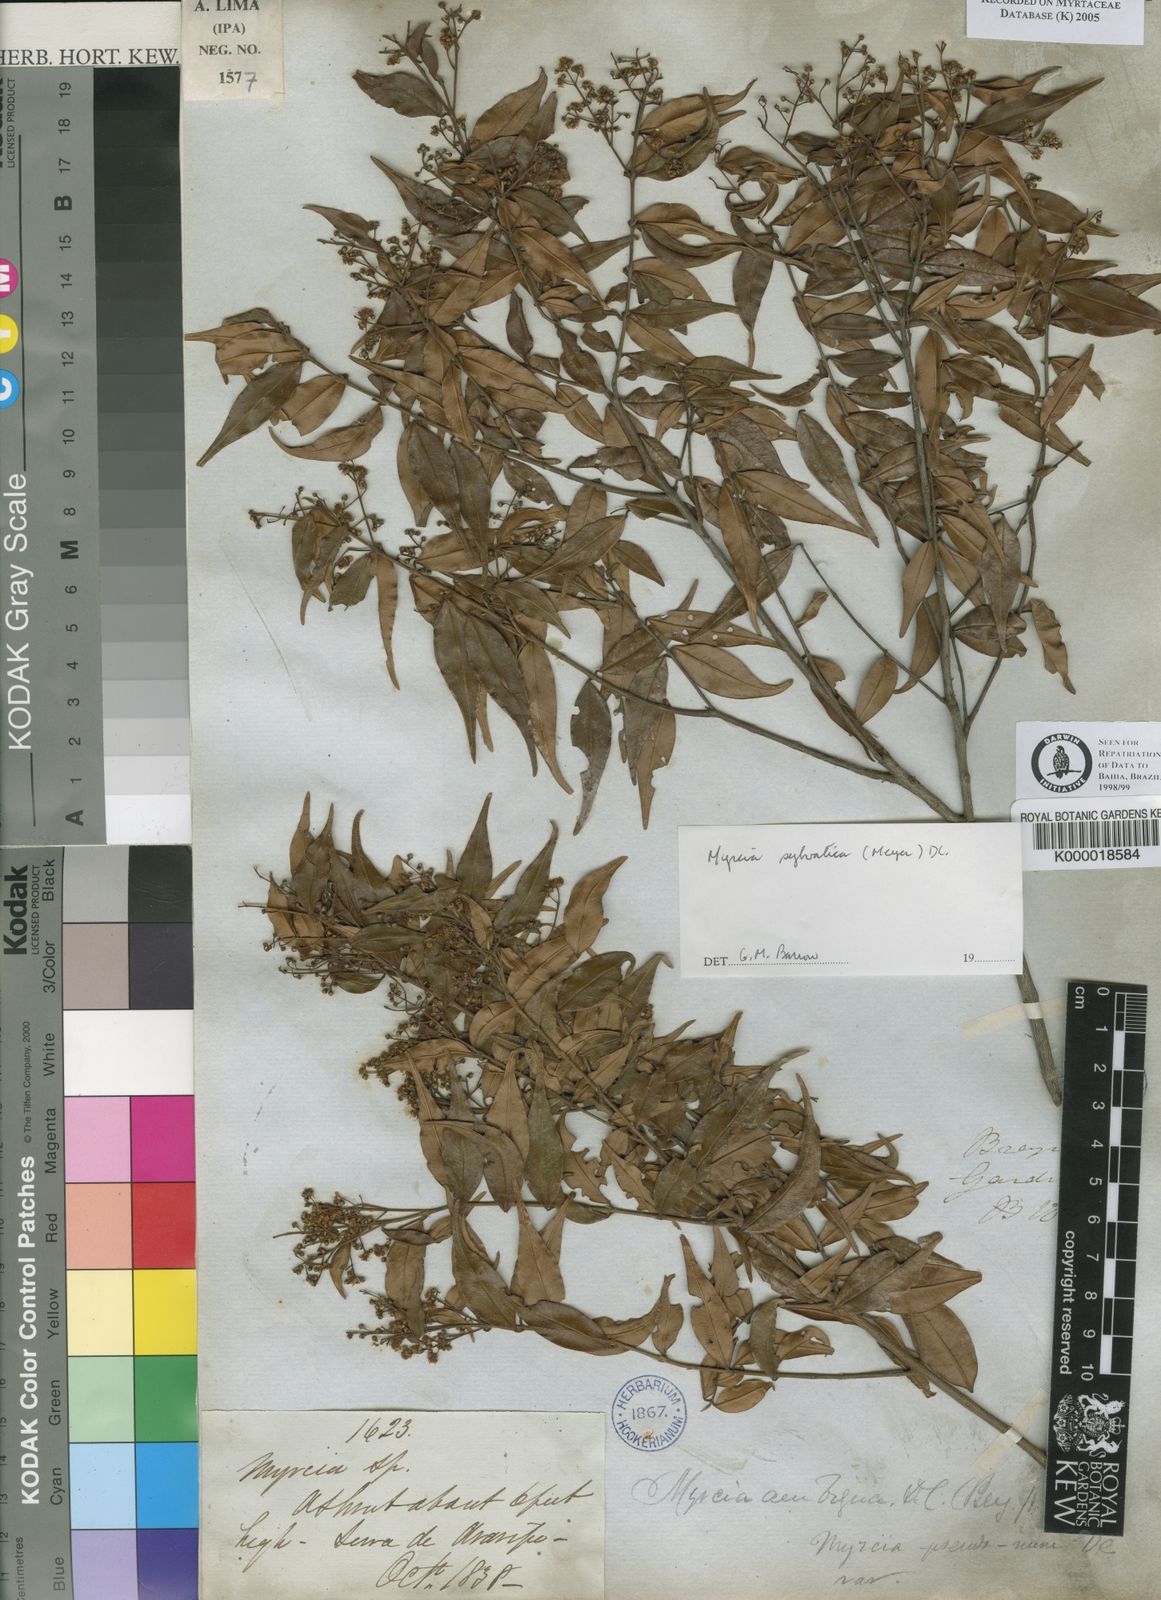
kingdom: Plantae
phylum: Tracheophyta
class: Magnoliopsida
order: Myrtales
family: Myrtaceae
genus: Myrcia
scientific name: Myrcia sylvatica
